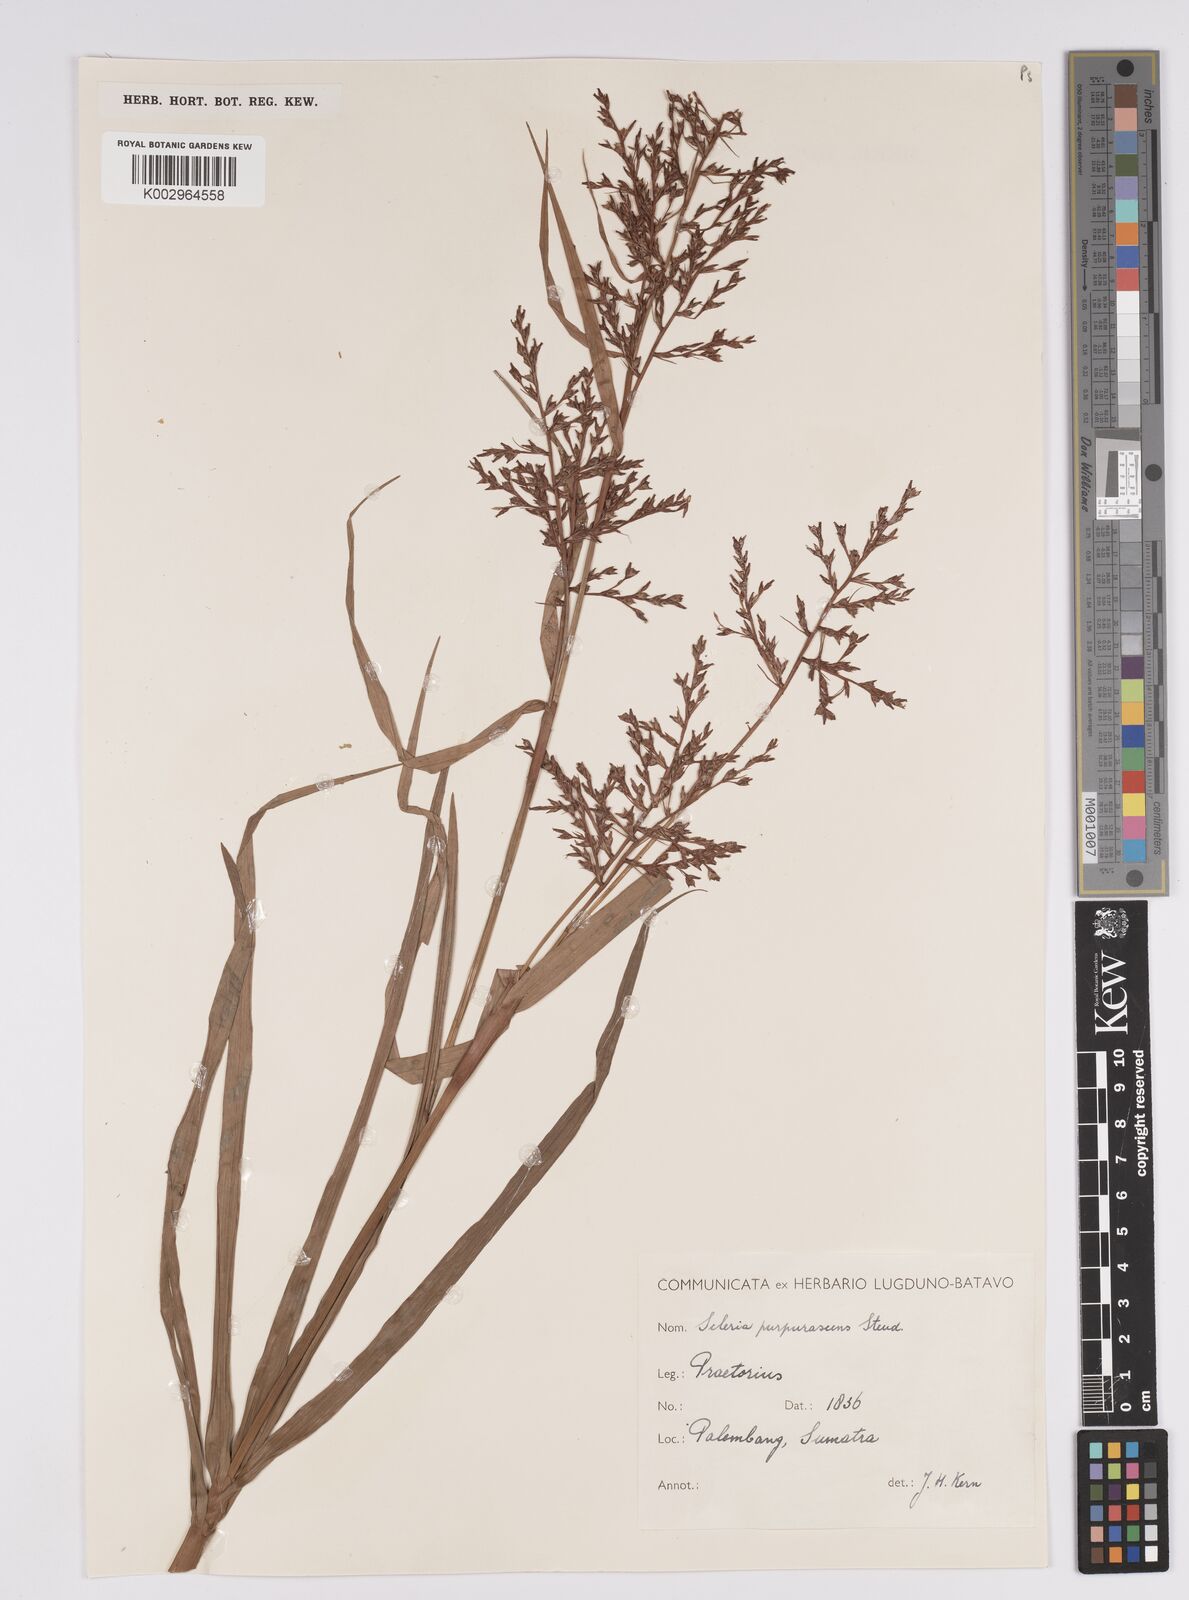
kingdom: Plantae
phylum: Tracheophyta
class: Liliopsida
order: Poales
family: Cyperaceae
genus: Scleria
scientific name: Scleria purpurascens
